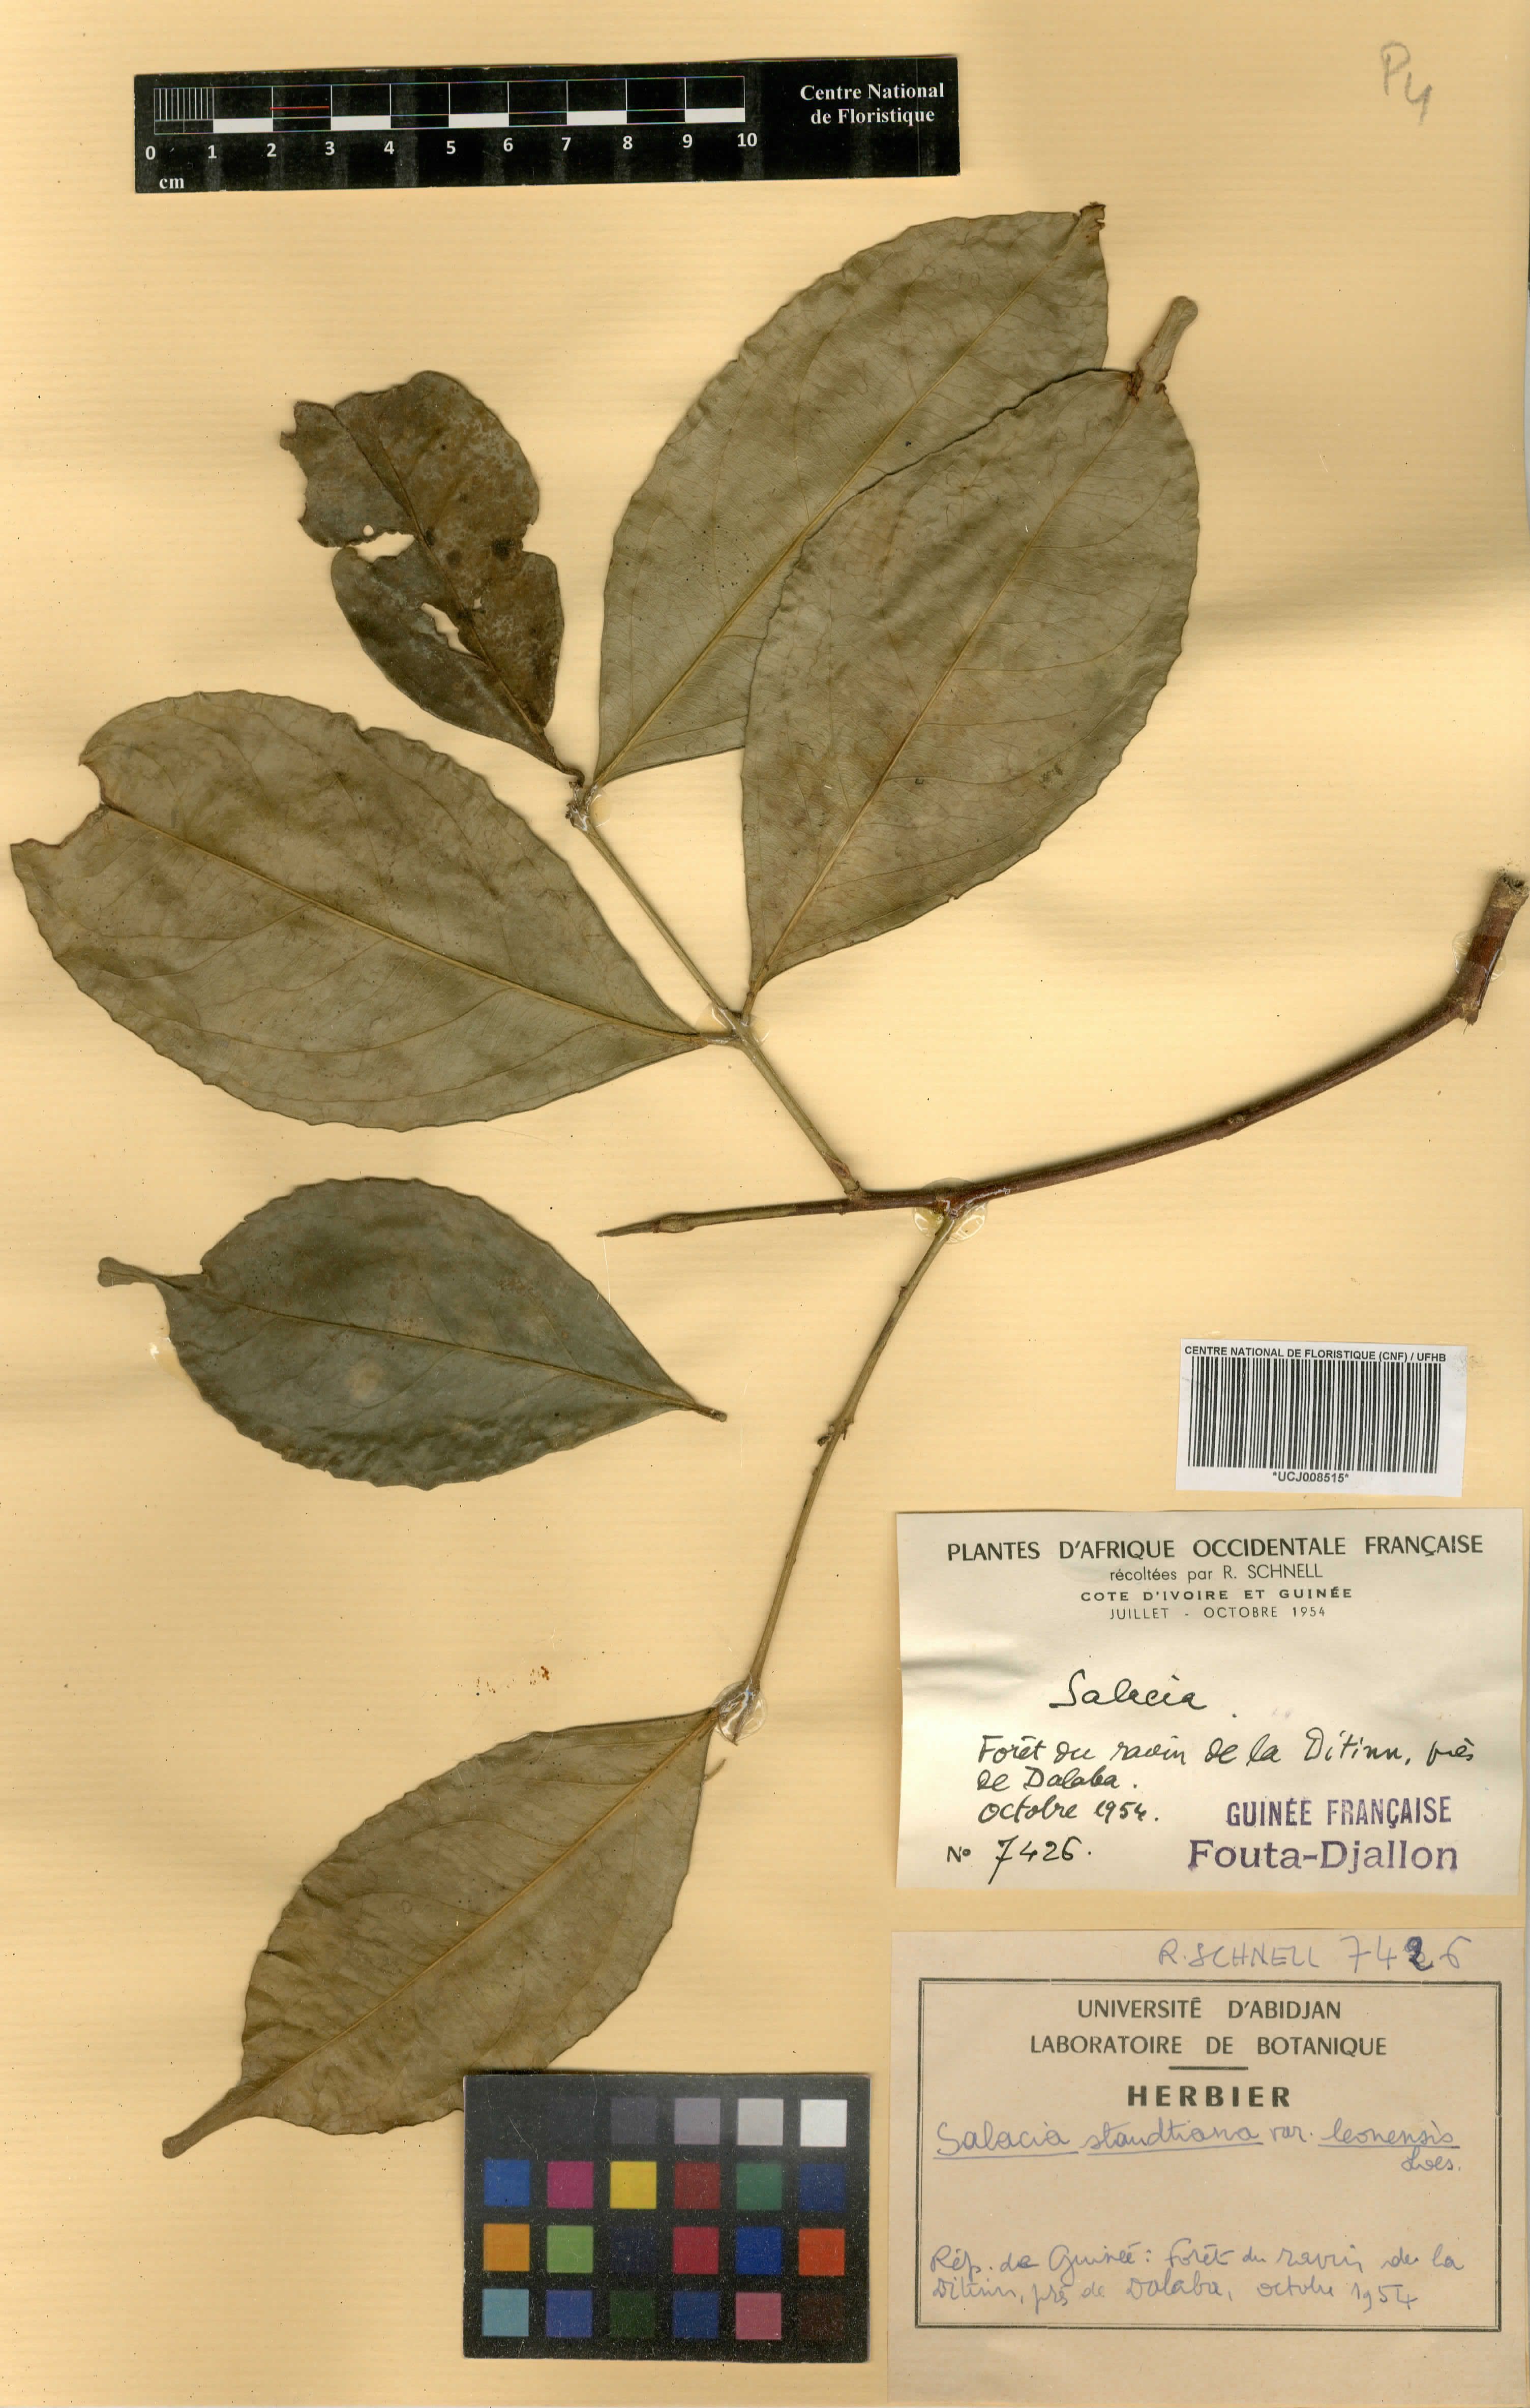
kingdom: Plantae
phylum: Tracheophyta
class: Magnoliopsida
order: Celastrales
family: Celastraceae
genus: Salacia
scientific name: Salacia caillei
